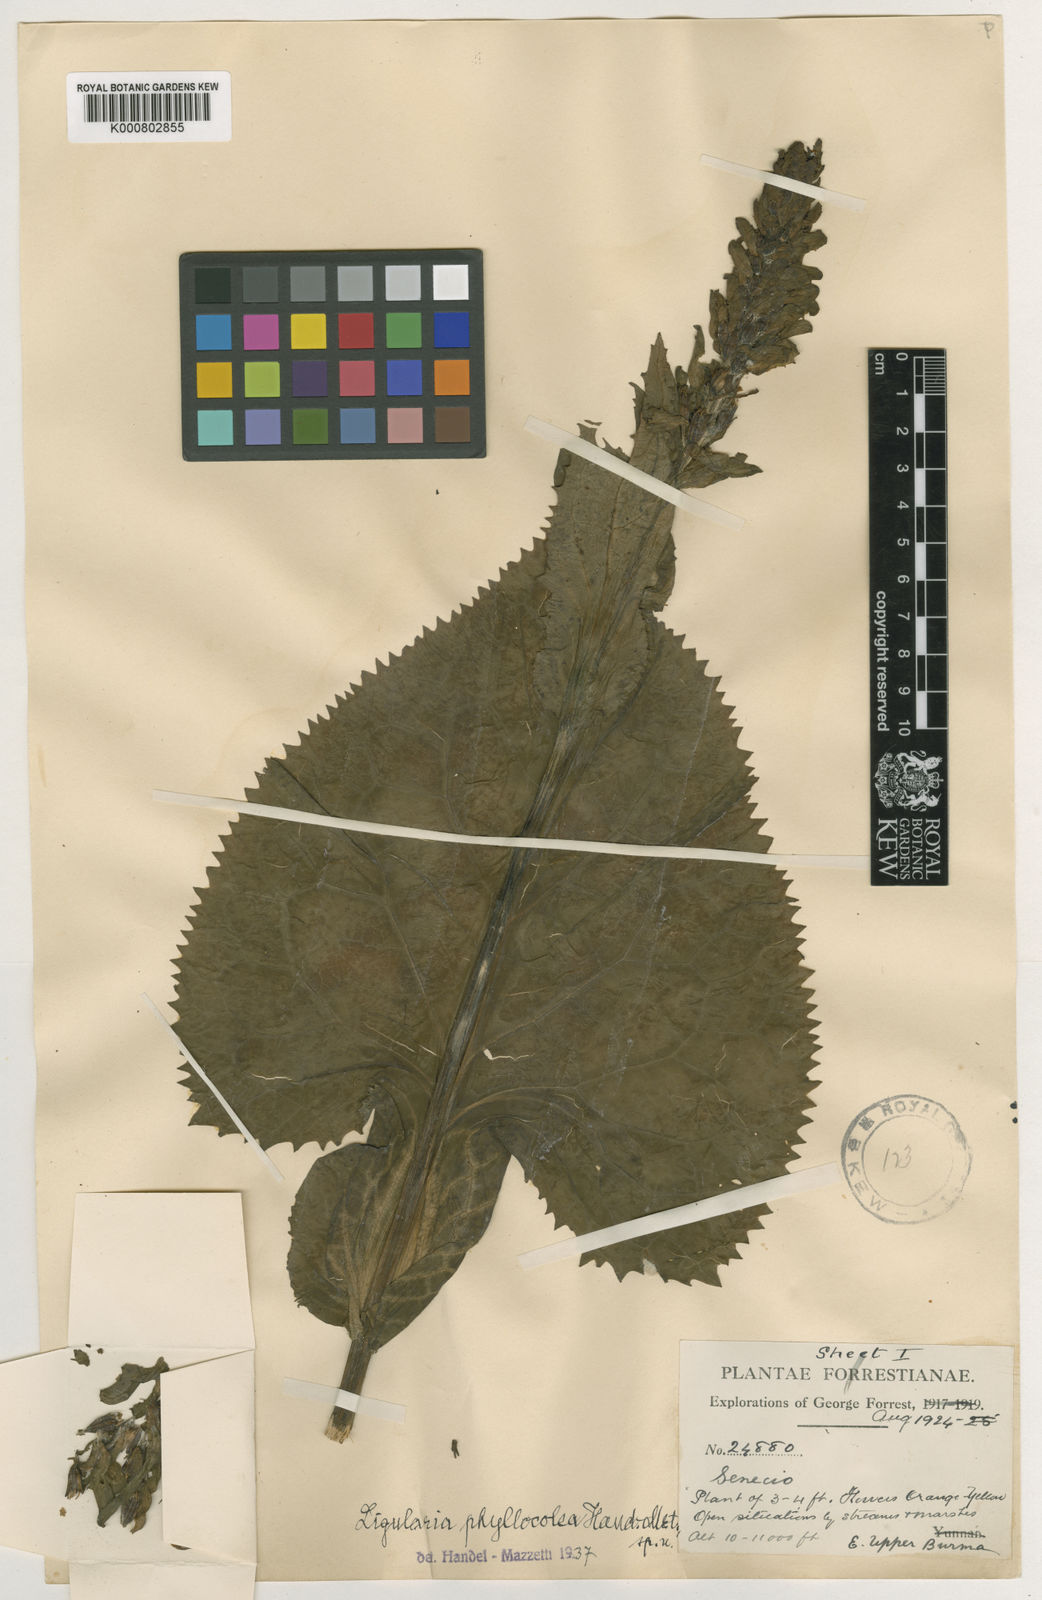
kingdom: Plantae
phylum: Tracheophyta
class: Magnoliopsida
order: Asterales
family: Asteraceae
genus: Ligularia
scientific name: Ligularia phyllocolea
